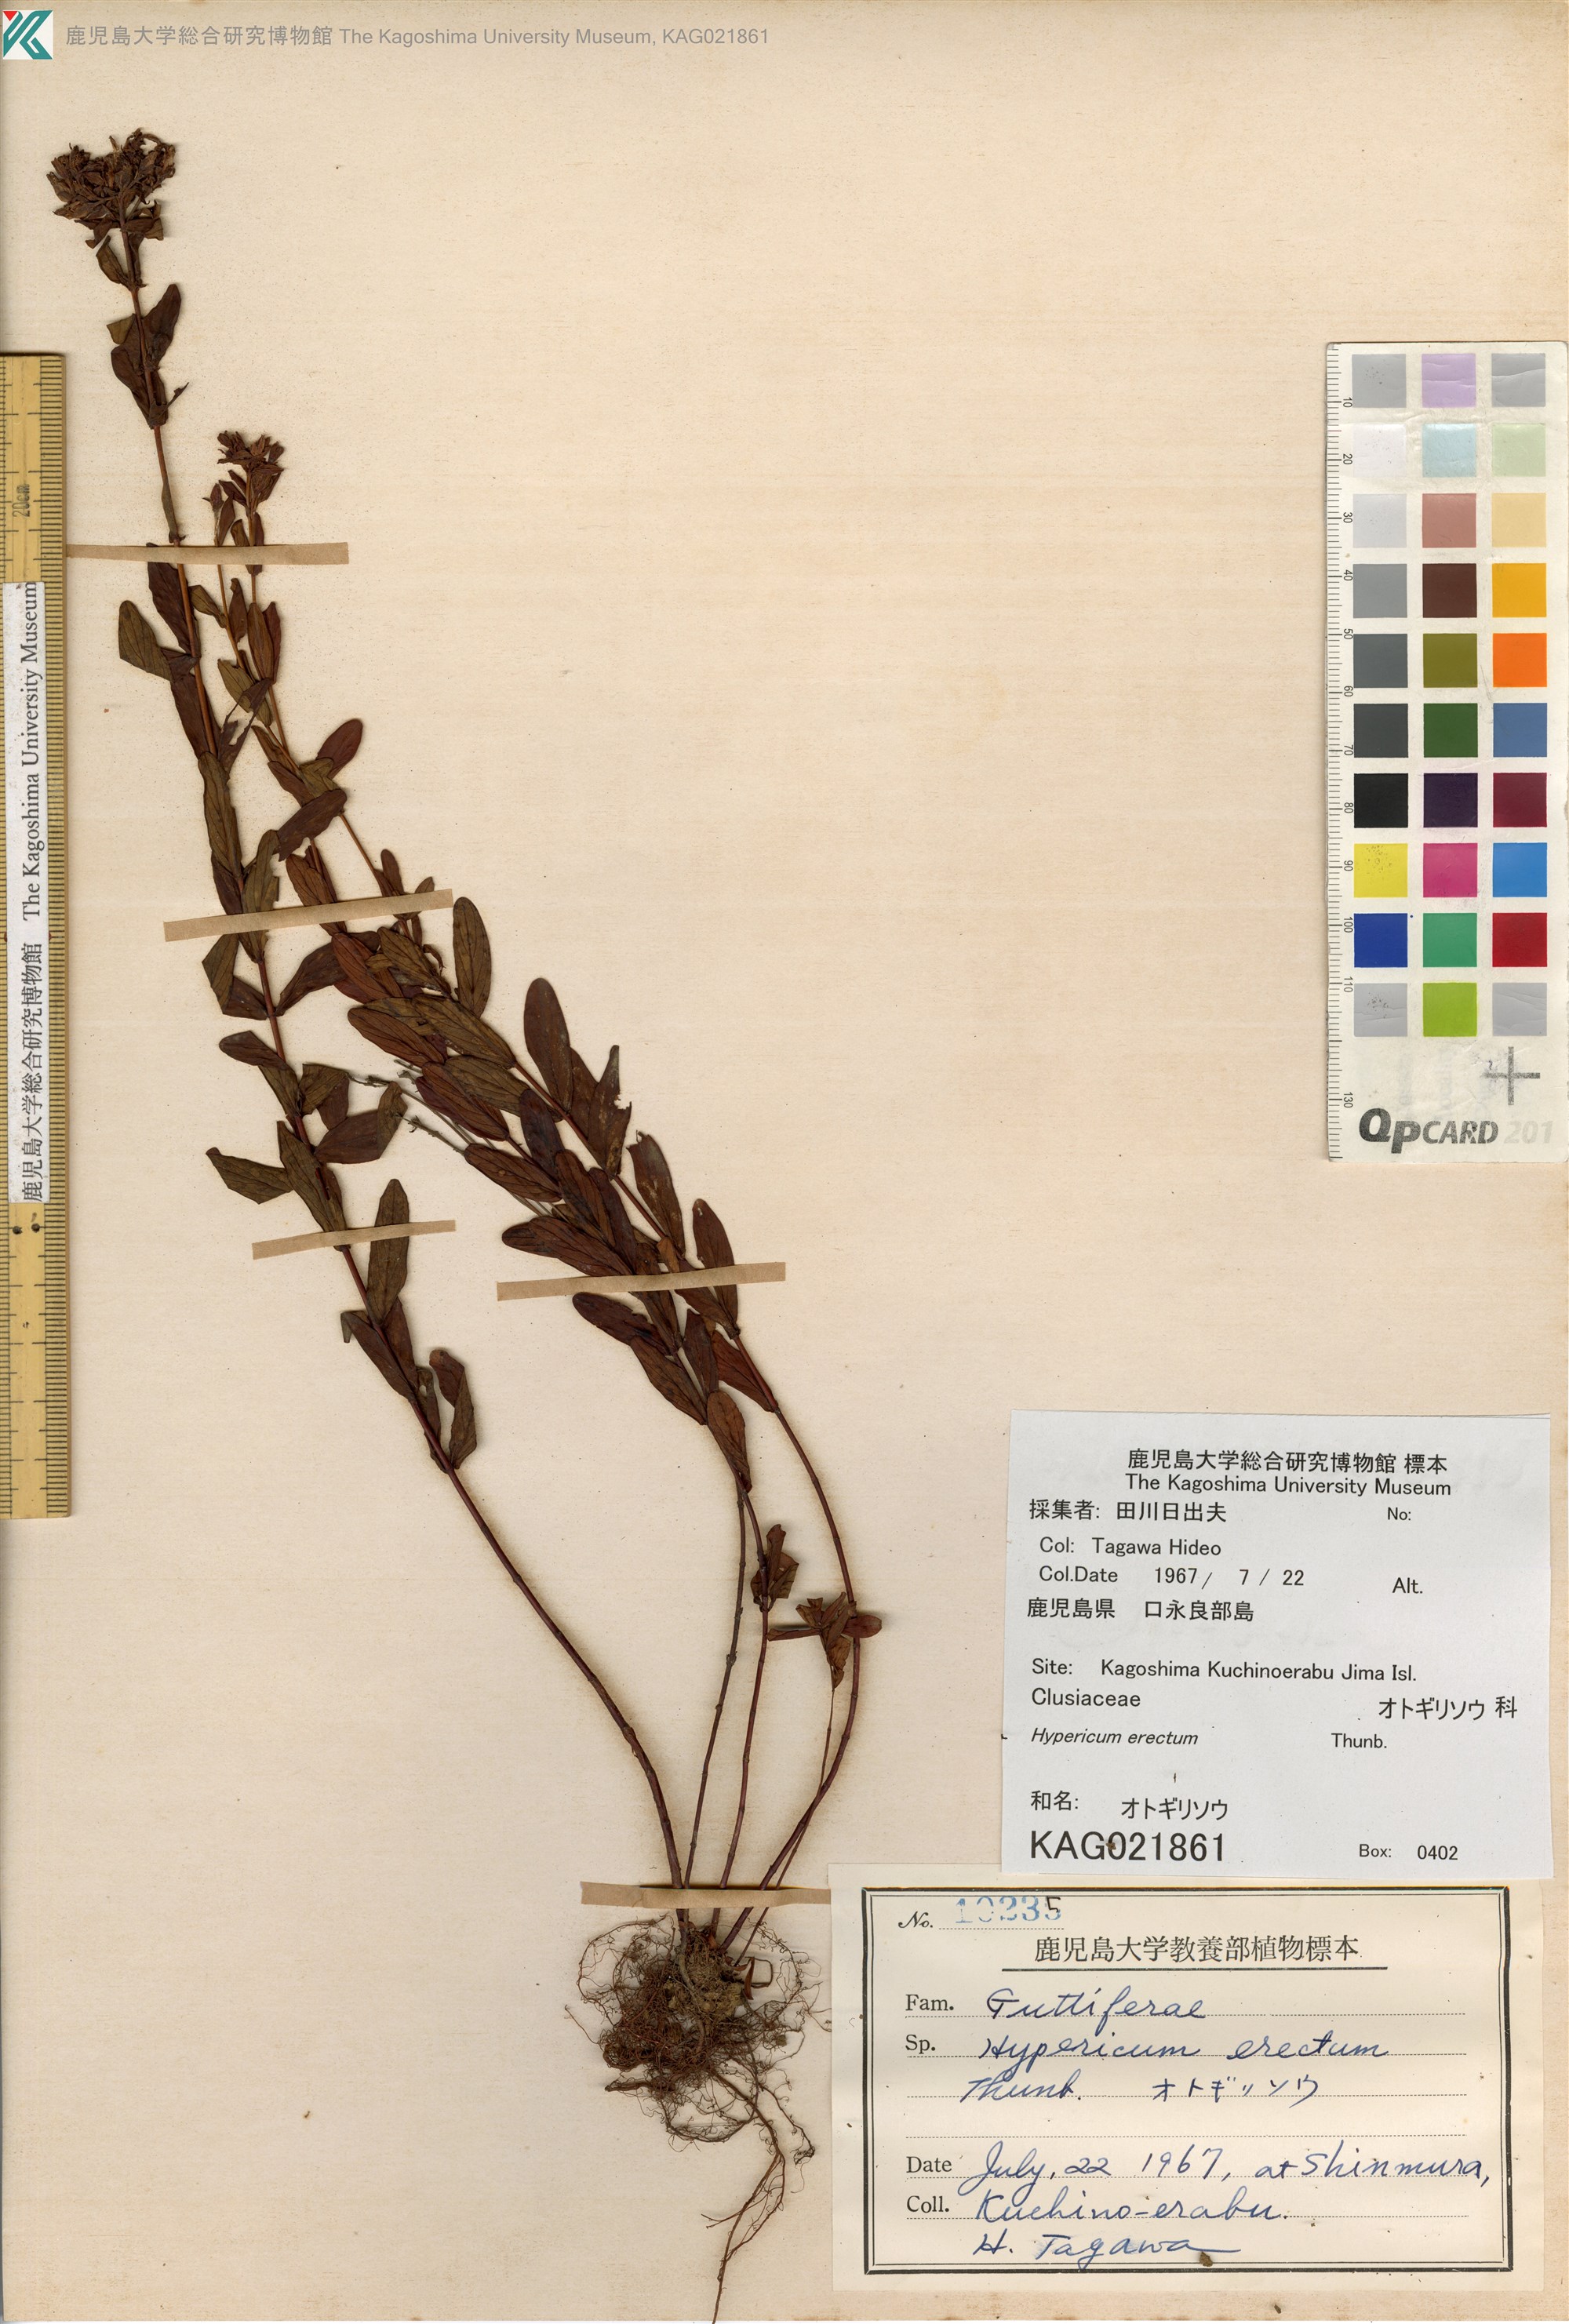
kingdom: Plantae
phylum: Tracheophyta
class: Magnoliopsida
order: Malpighiales
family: Hypericaceae
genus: Hypericum
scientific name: Hypericum erectum
